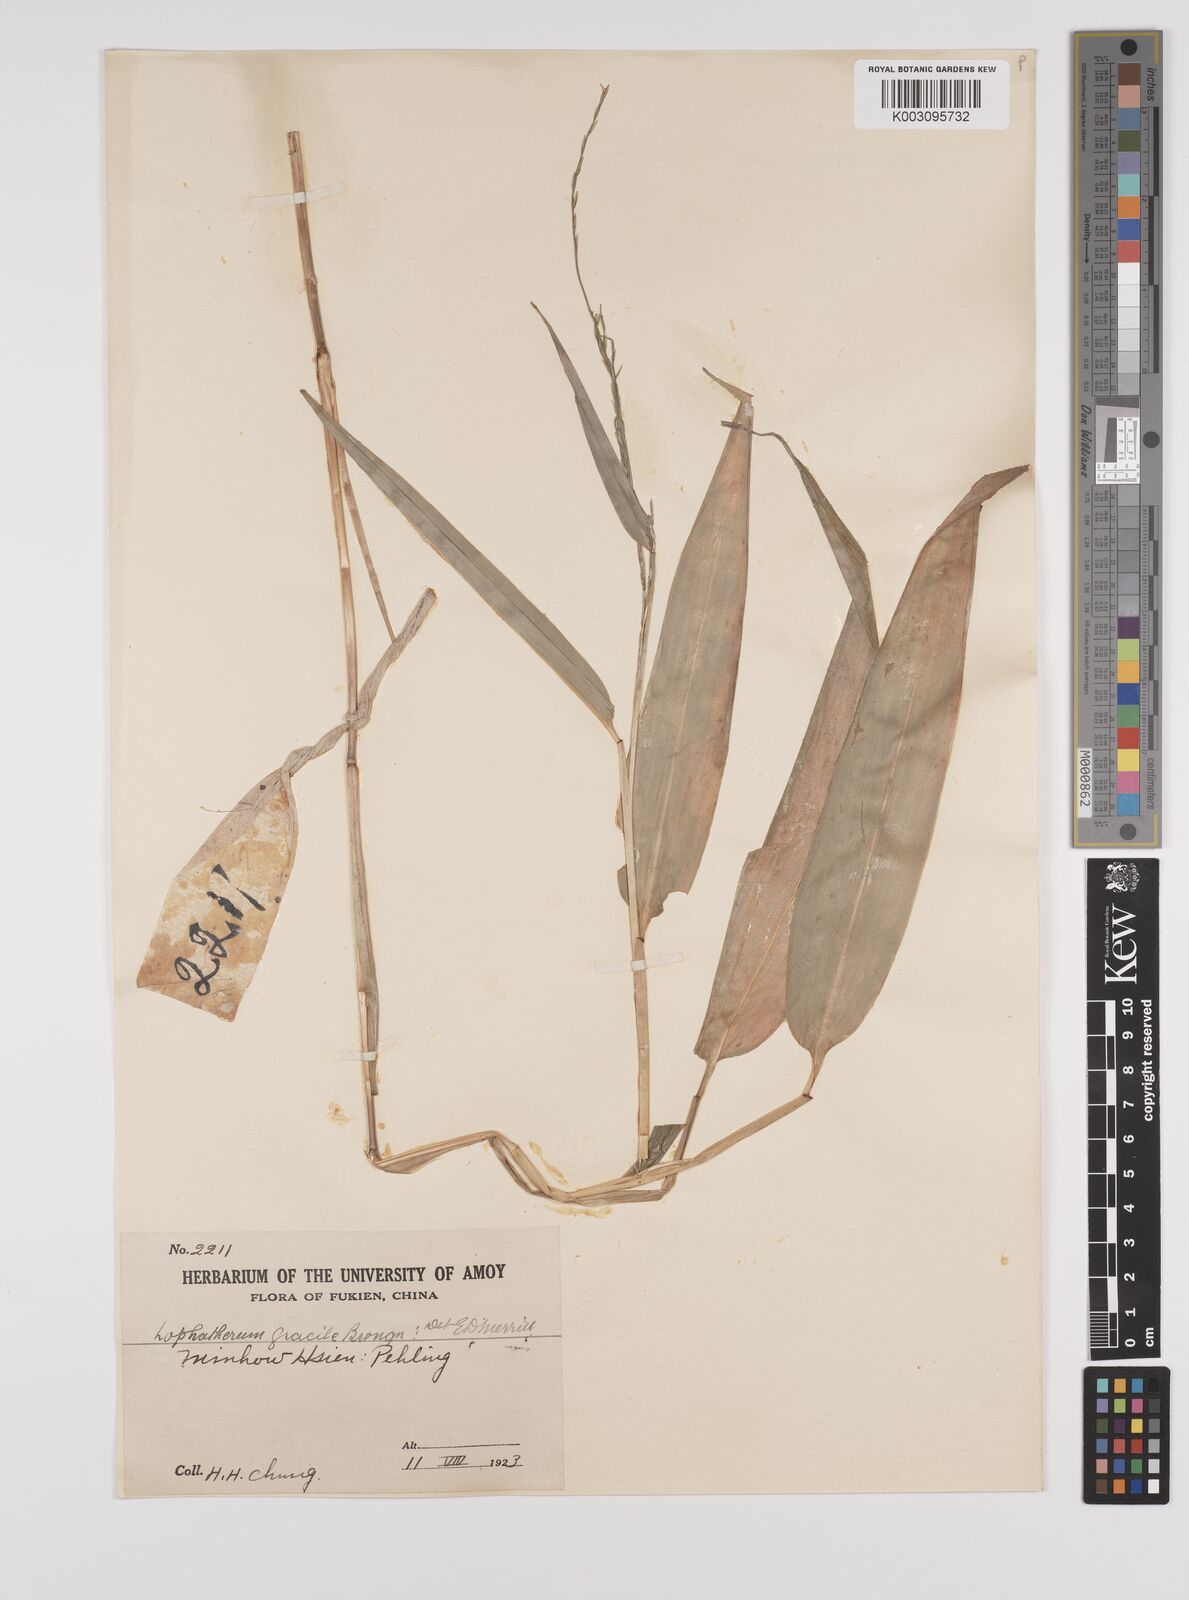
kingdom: Plantae
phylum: Tracheophyta
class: Liliopsida
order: Poales
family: Poaceae
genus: Lophatherum
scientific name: Lophatherum gracile
